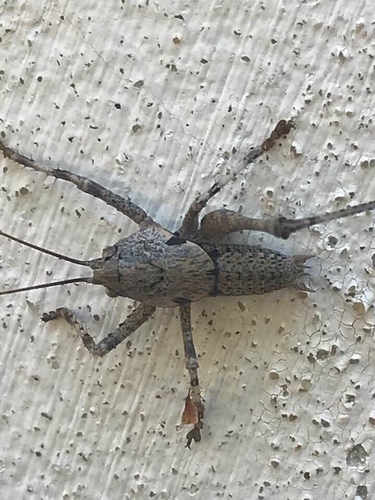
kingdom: Animalia
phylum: Arthropoda
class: Insecta
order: Orthoptera
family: Tettigoniidae
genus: Thyreonotus
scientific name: Thyreonotus bidens
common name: Two-toothed bush-cricket
